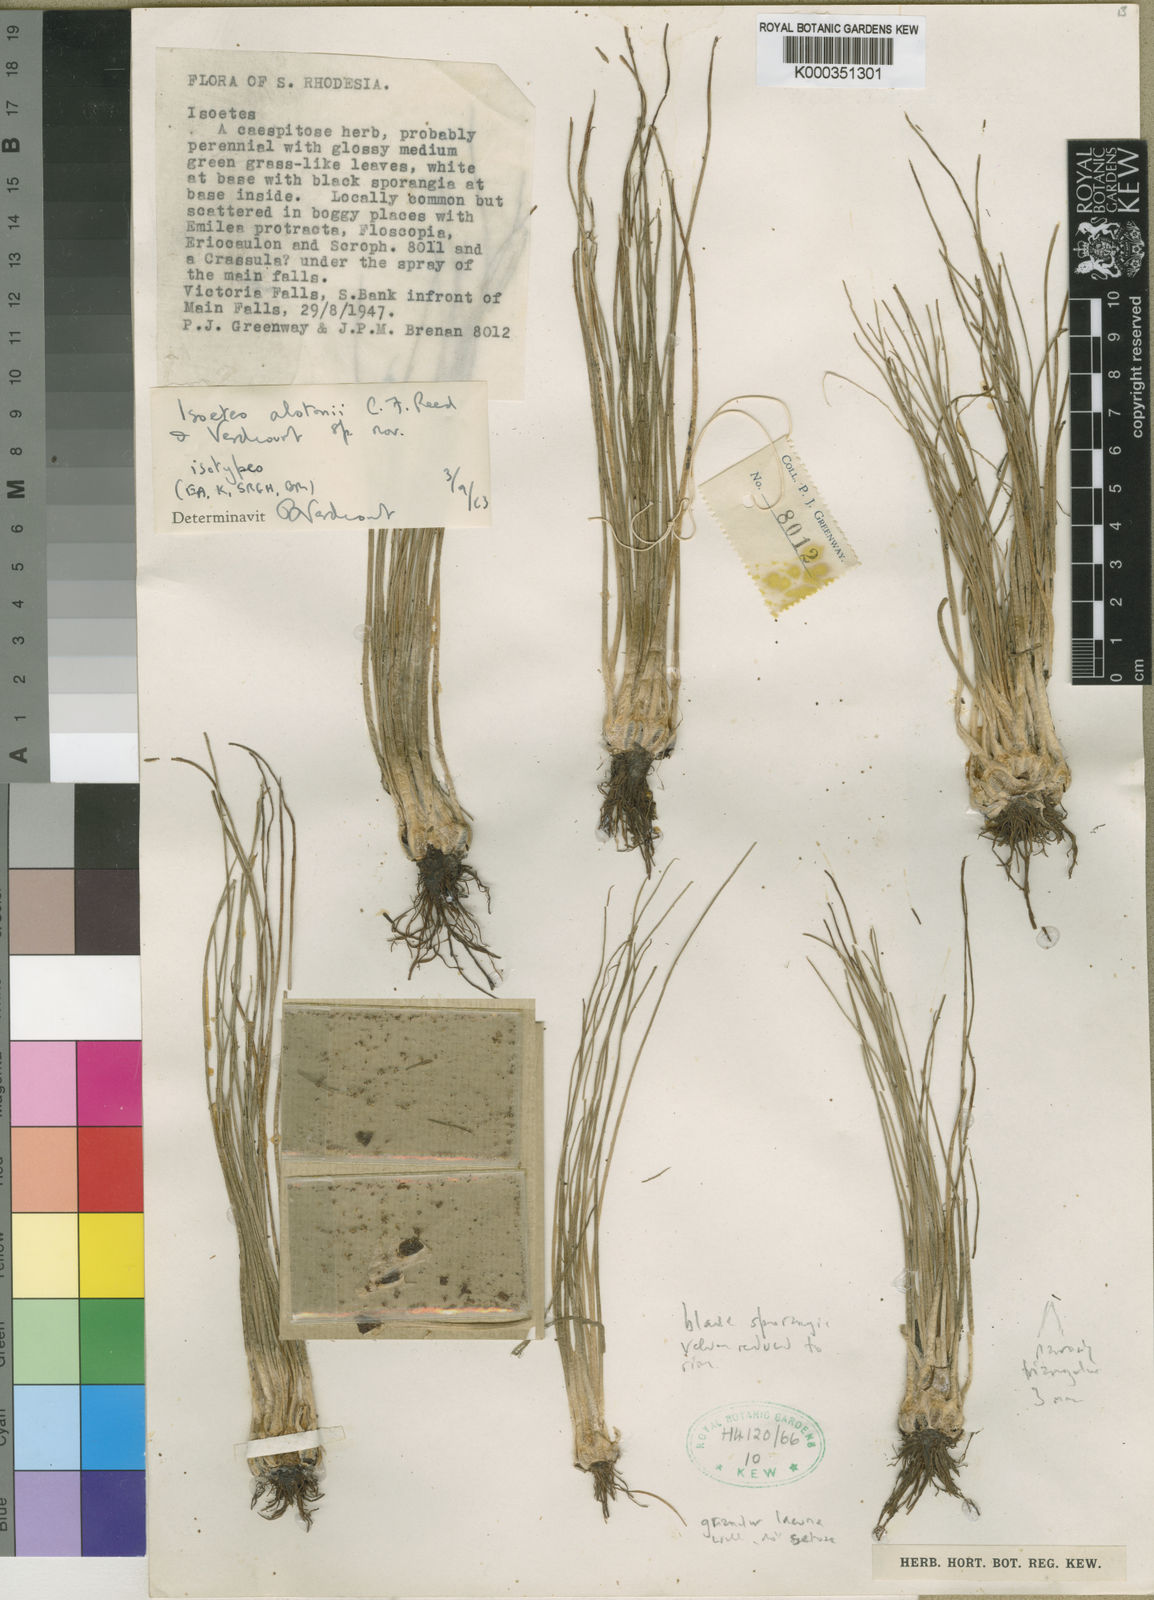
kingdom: Plantae
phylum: Tracheophyta
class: Lycopodiopsida
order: Isoetales
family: Isoetaceae
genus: Isoetes
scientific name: Isoetes alstonii
